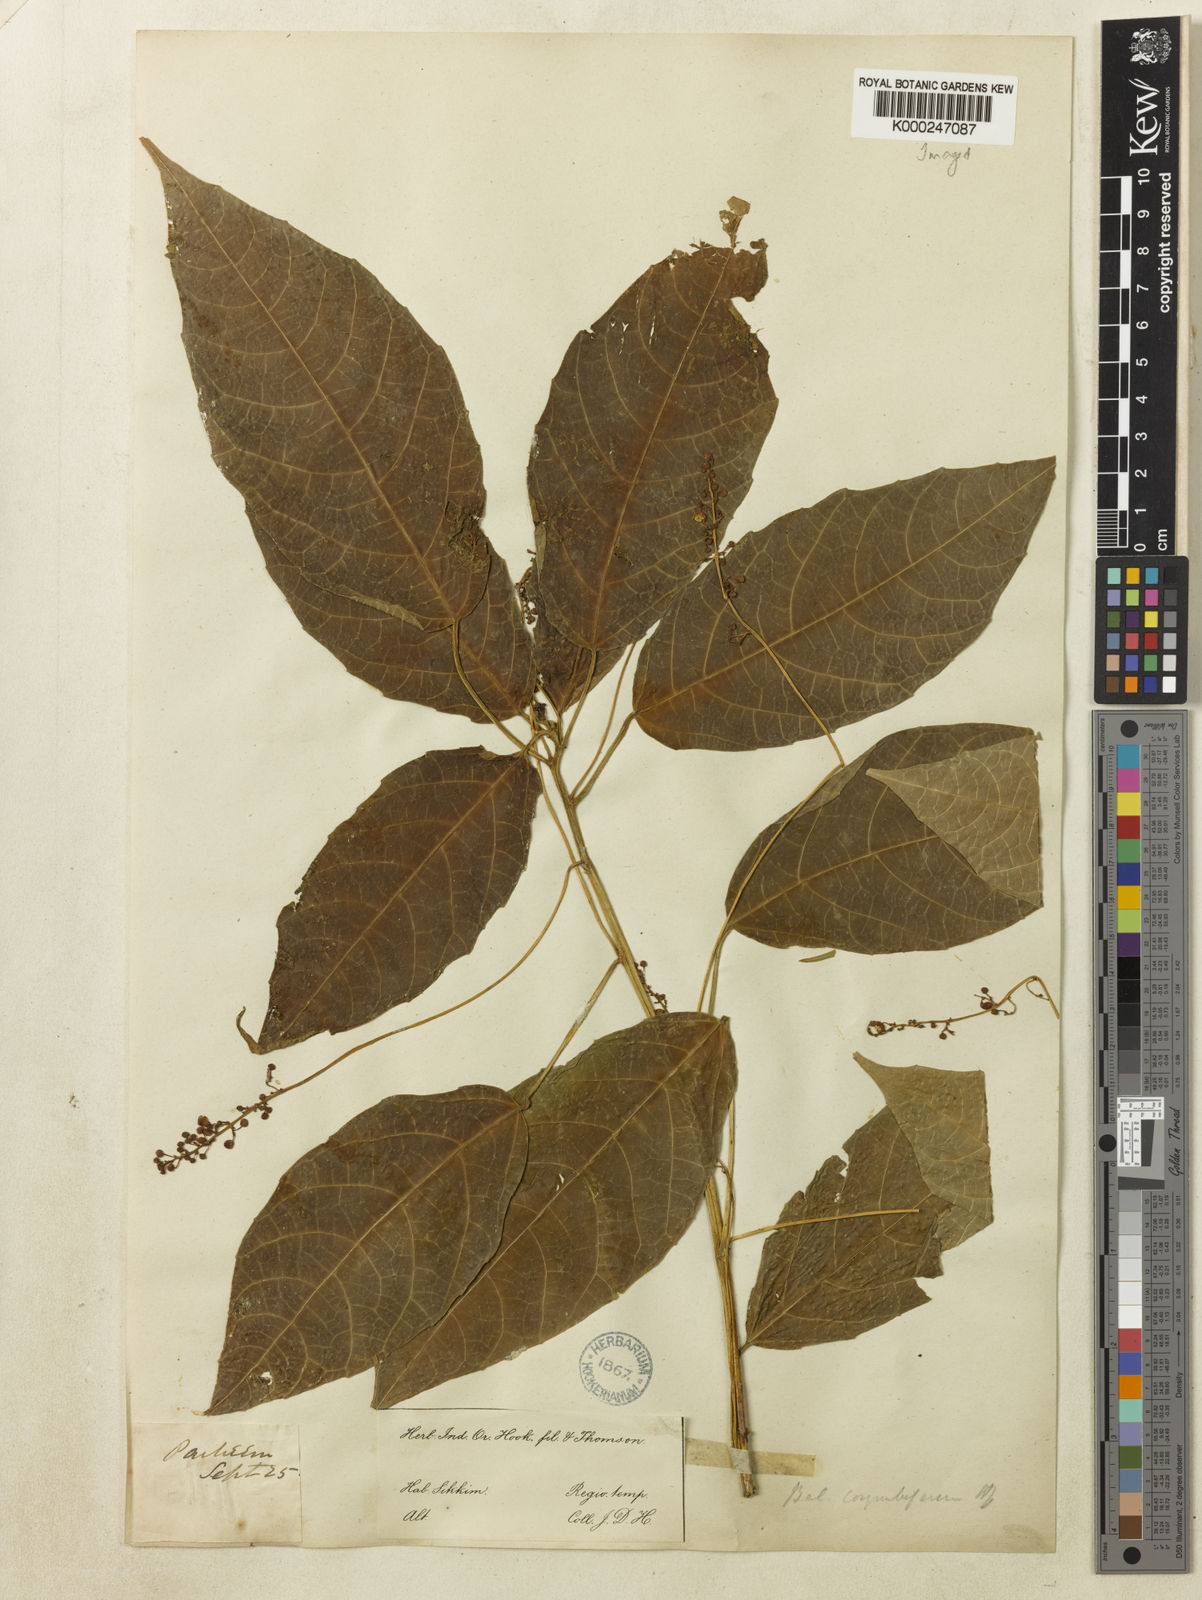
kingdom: Plantae
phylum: Tracheophyta
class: Magnoliopsida
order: Malpighiales
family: Euphorbiaceae
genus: Baliospermum
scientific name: Baliospermum
